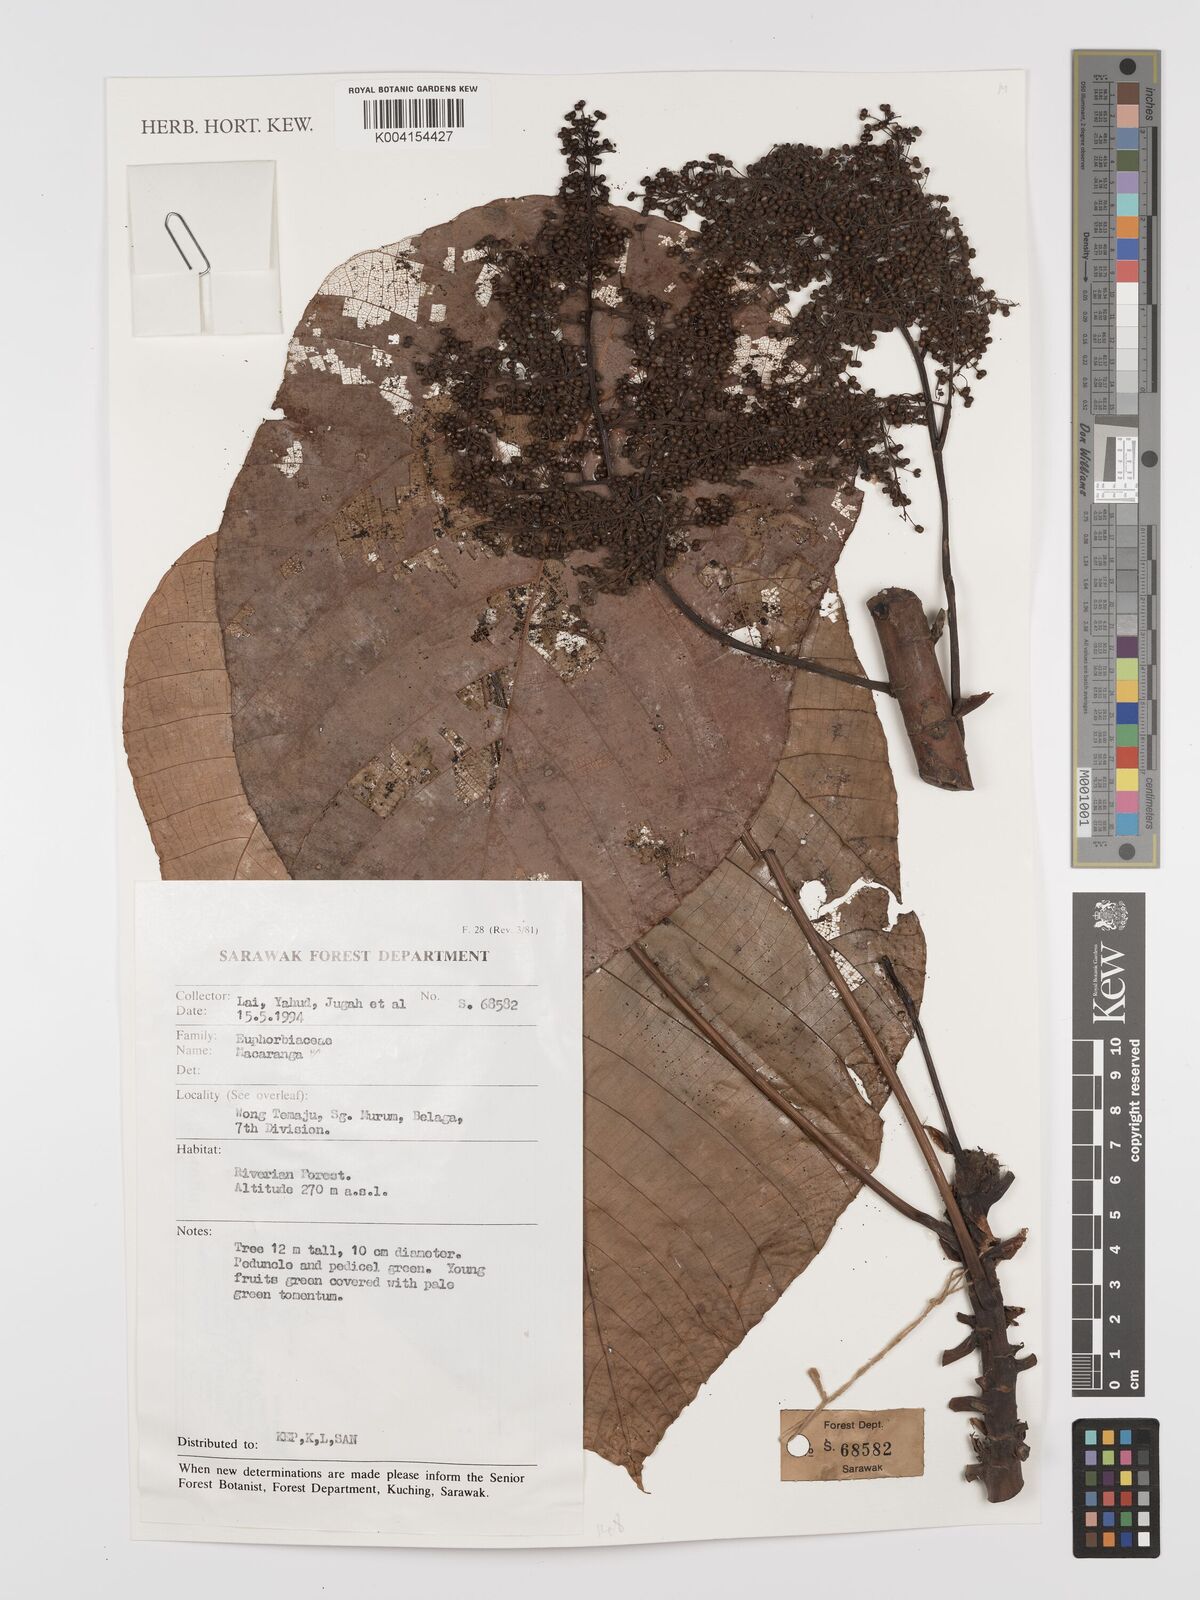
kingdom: Plantae
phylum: Tracheophyta
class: Magnoliopsida
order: Malpighiales
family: Euphorbiaceae
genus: Macaranga
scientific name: Macaranga
